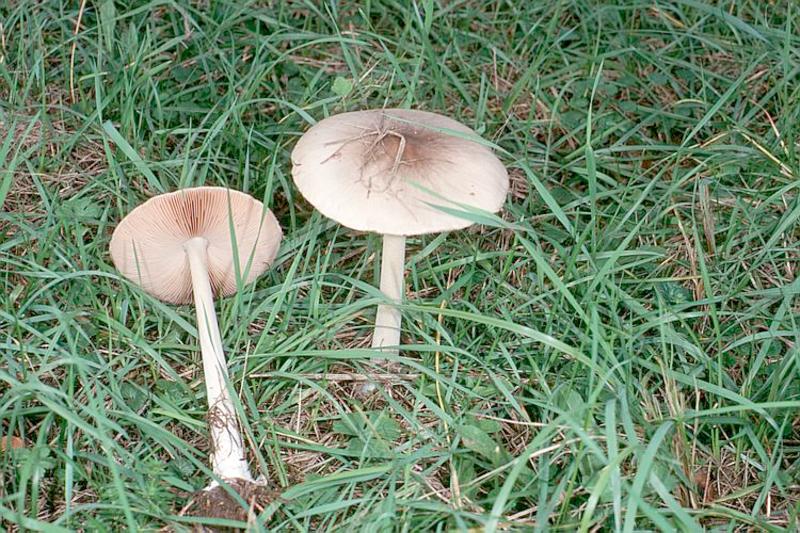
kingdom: Fungi
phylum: Basidiomycota
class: Agaricomycetes
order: Agaricales
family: Pluteaceae
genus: Volvopluteus
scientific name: Volvopluteus gloiocephalus
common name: Stubble rosegill
